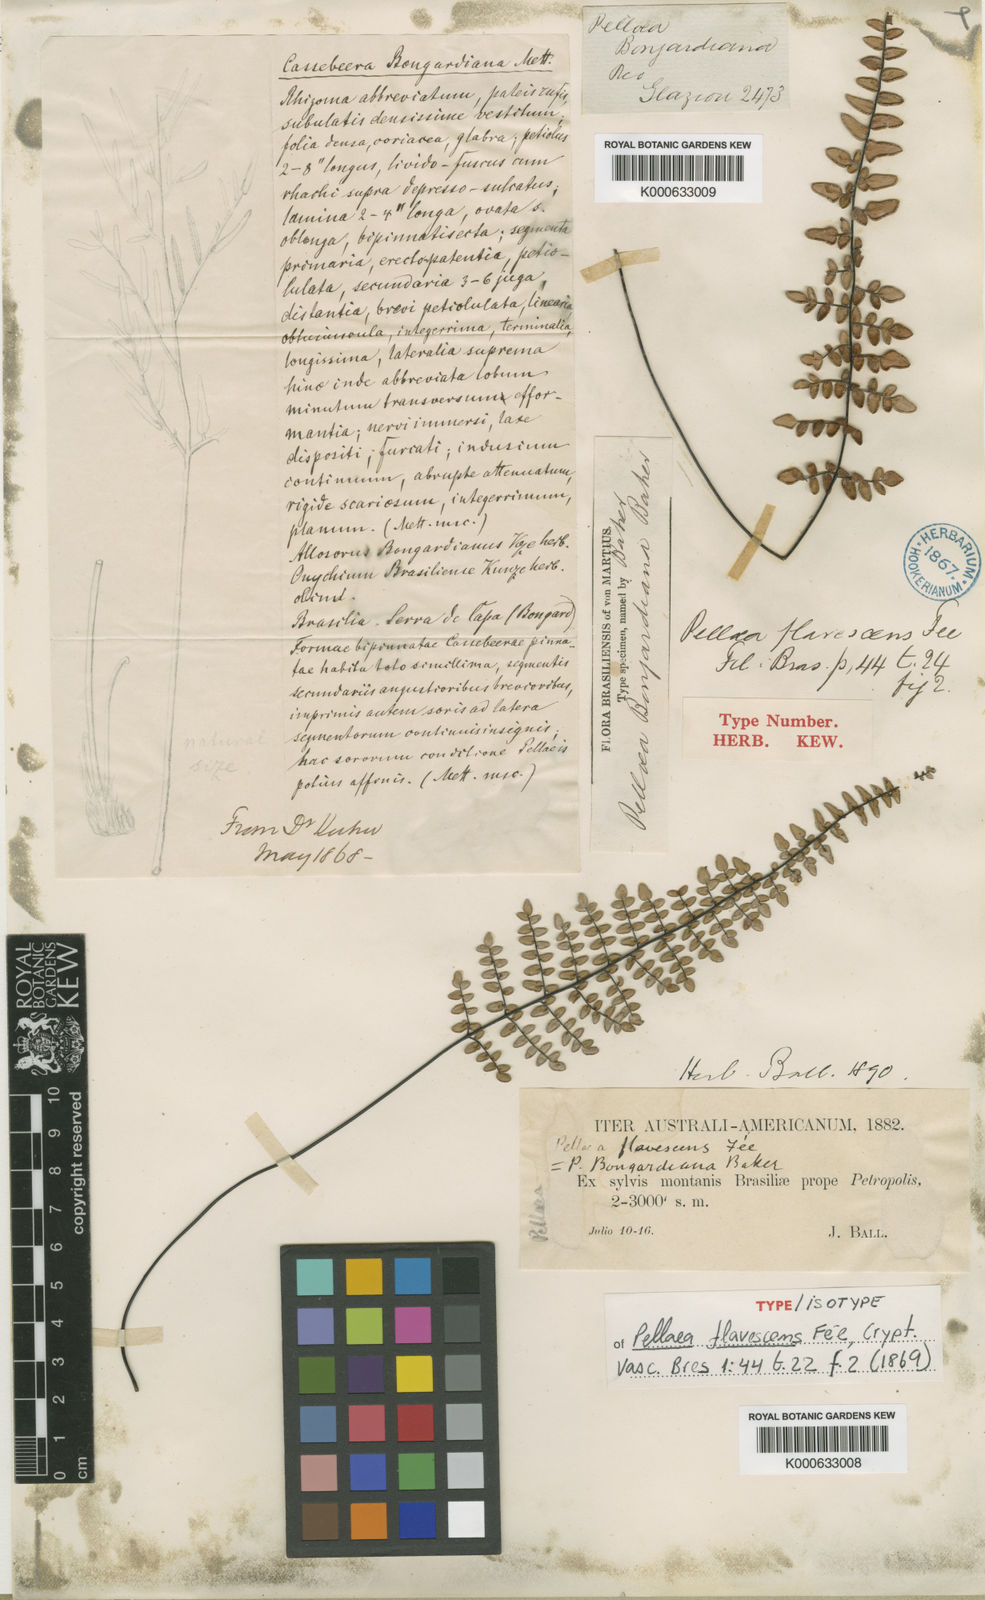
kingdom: Plantae
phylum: Tracheophyta
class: Polypodiopsida
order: Polypodiales
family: Pteridaceae
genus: Pellaea
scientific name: Pellaea
